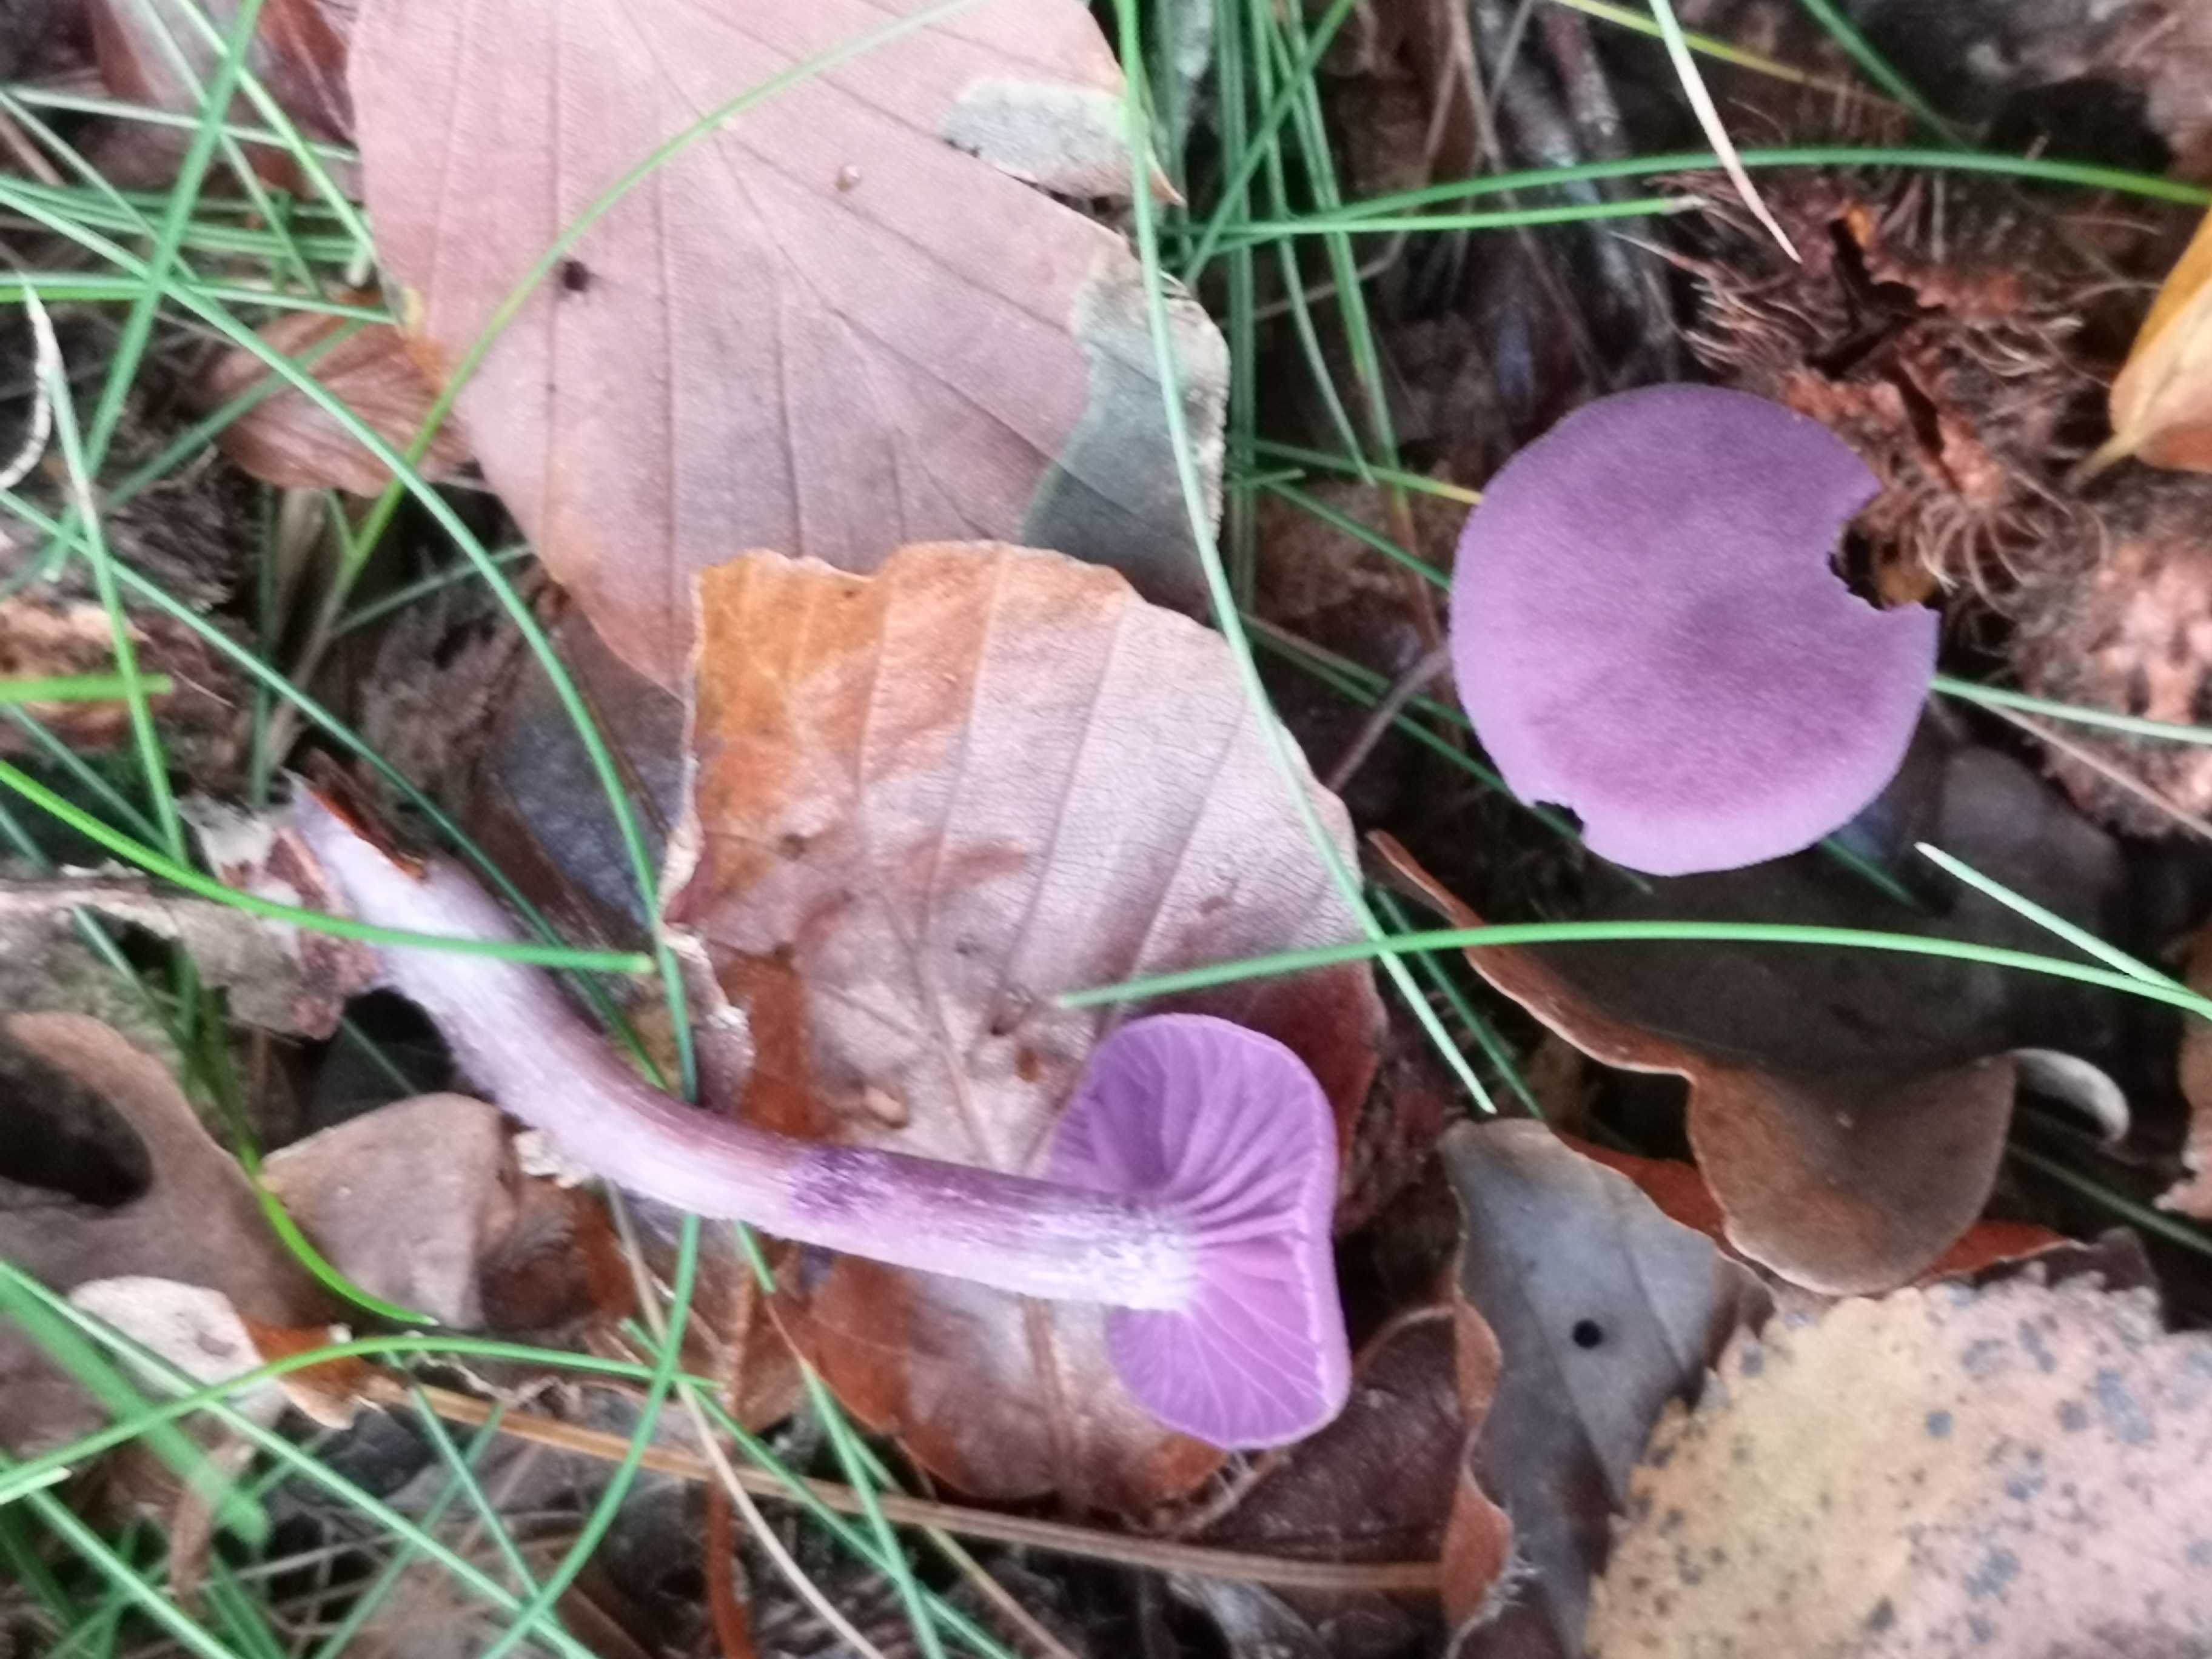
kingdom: Fungi
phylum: Basidiomycota
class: Agaricomycetes
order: Agaricales
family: Hydnangiaceae
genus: Laccaria
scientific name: Laccaria amethystina
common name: violet ametysthat
